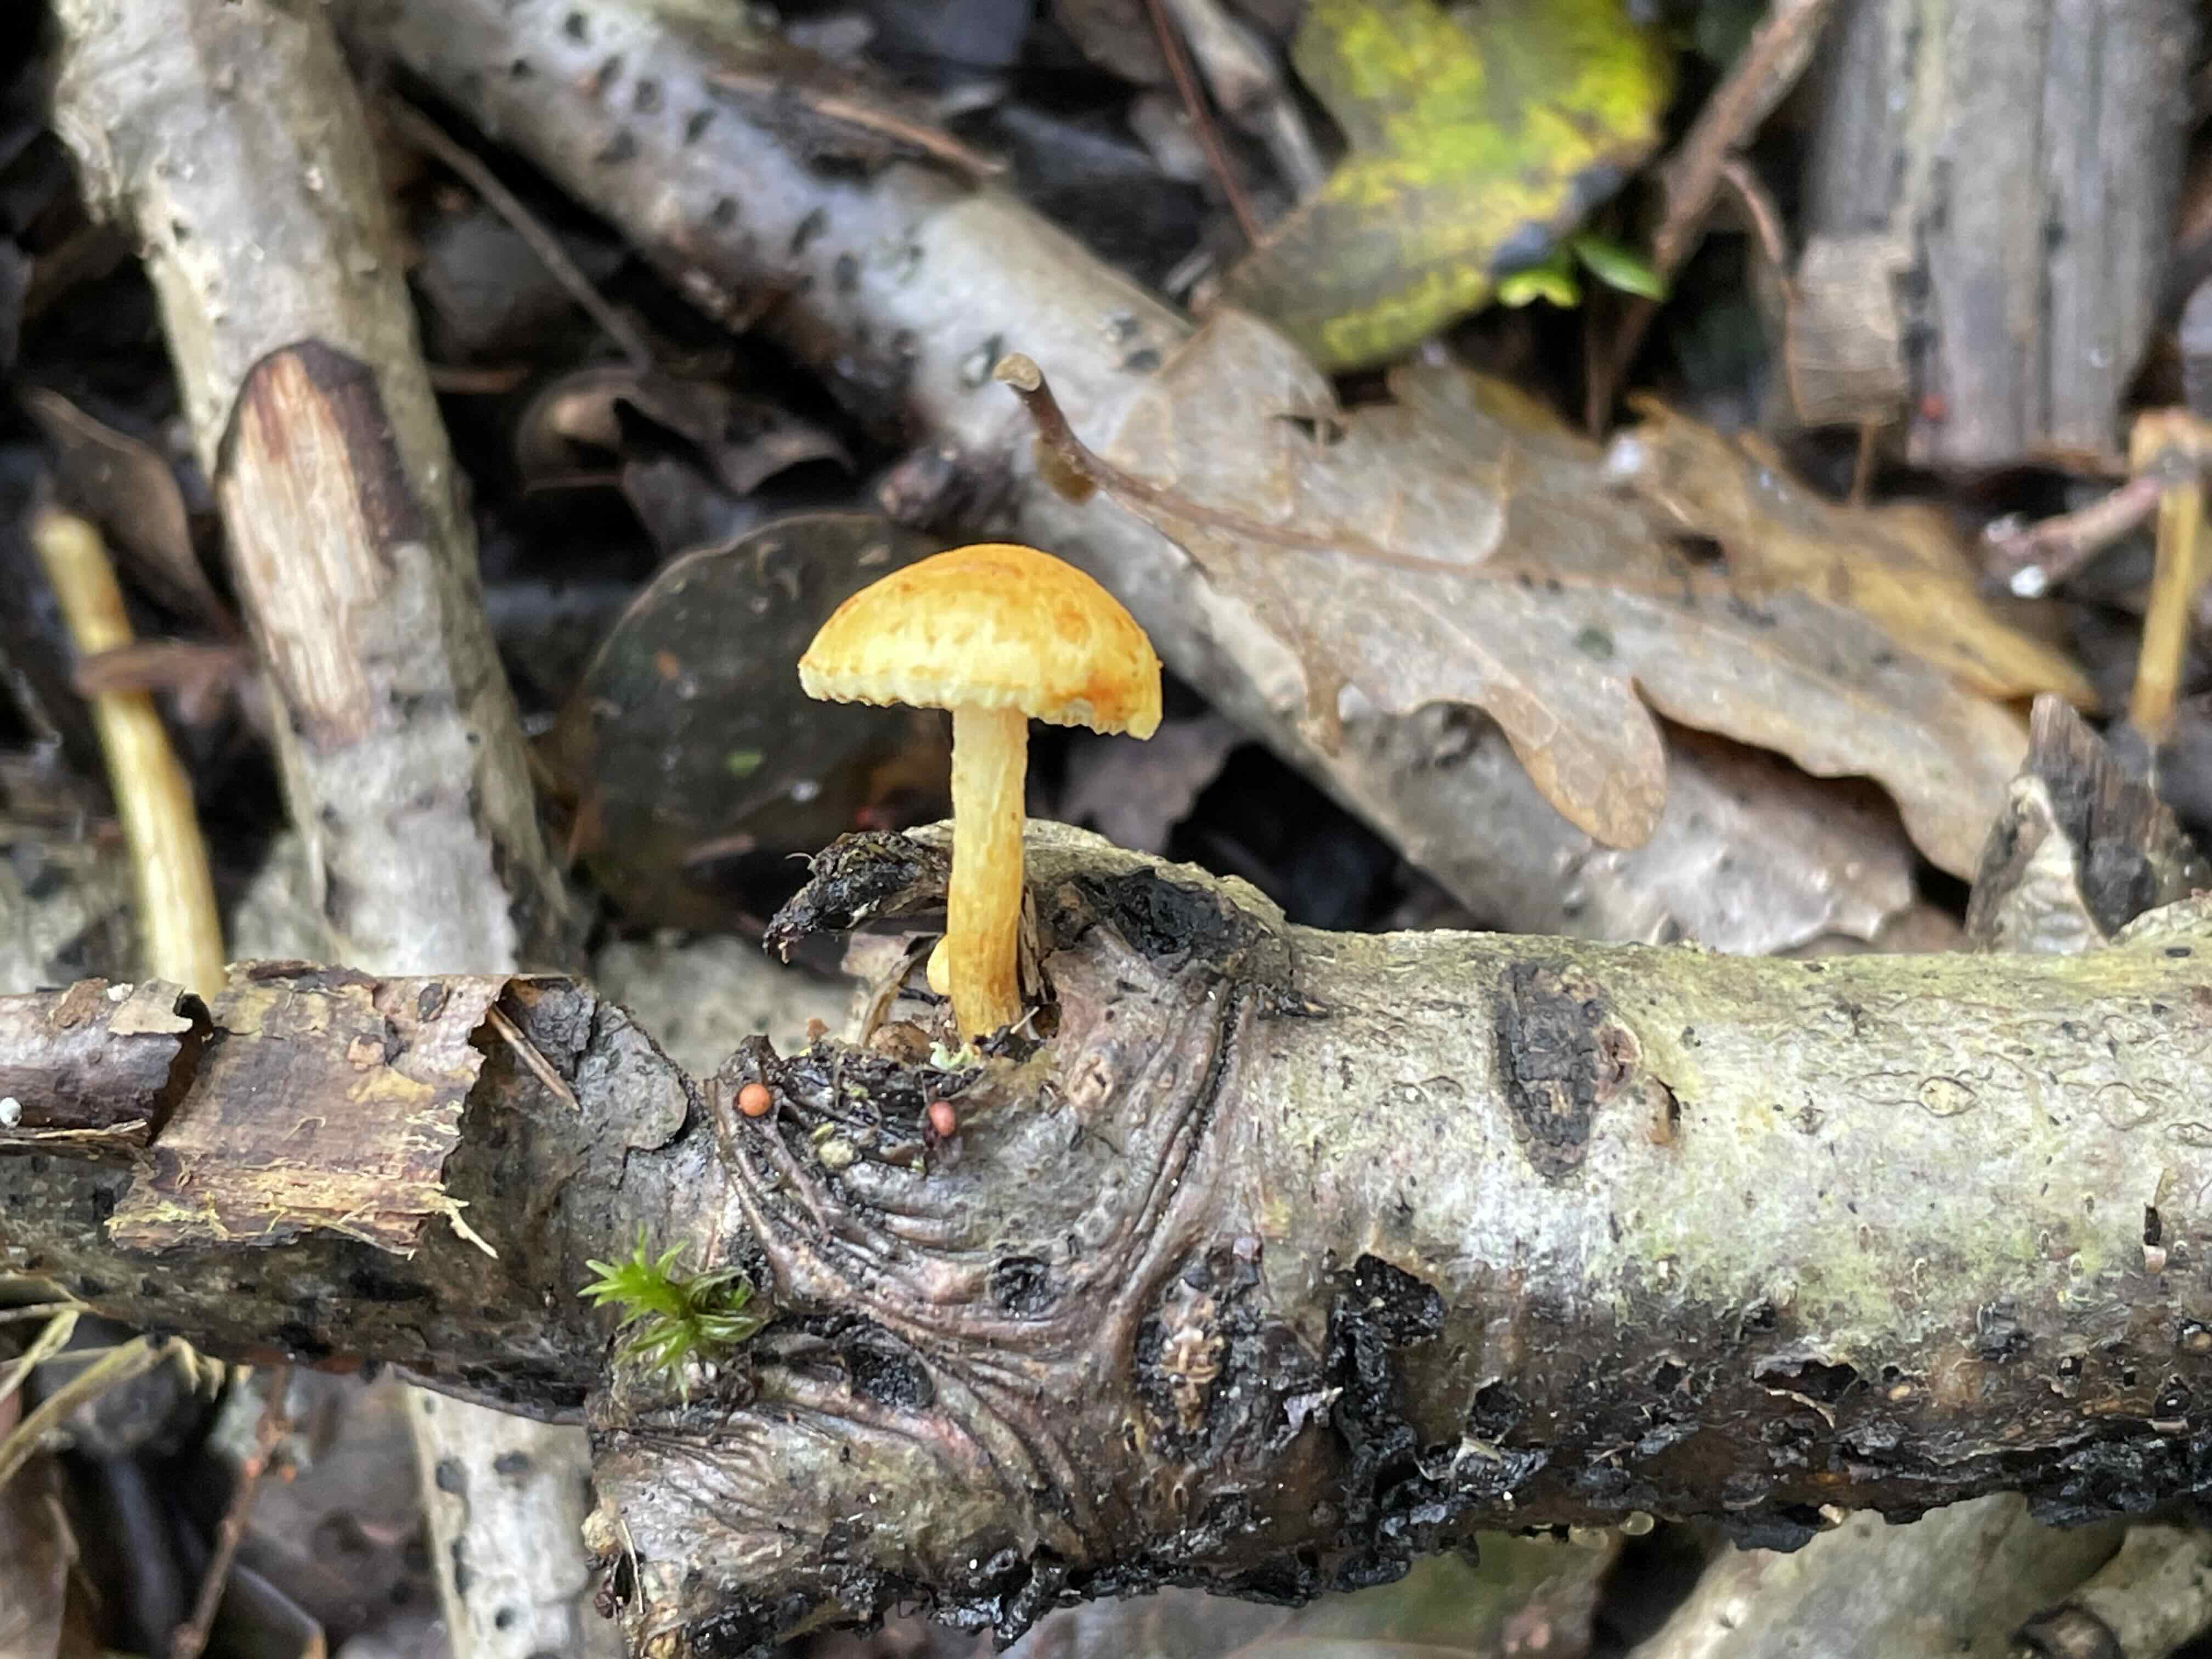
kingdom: Fungi
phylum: Basidiomycota
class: Agaricomycetes
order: Agaricales
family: Strophariaceae
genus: Pholiota
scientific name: Pholiota tuberculosa
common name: finskællet skælhat
